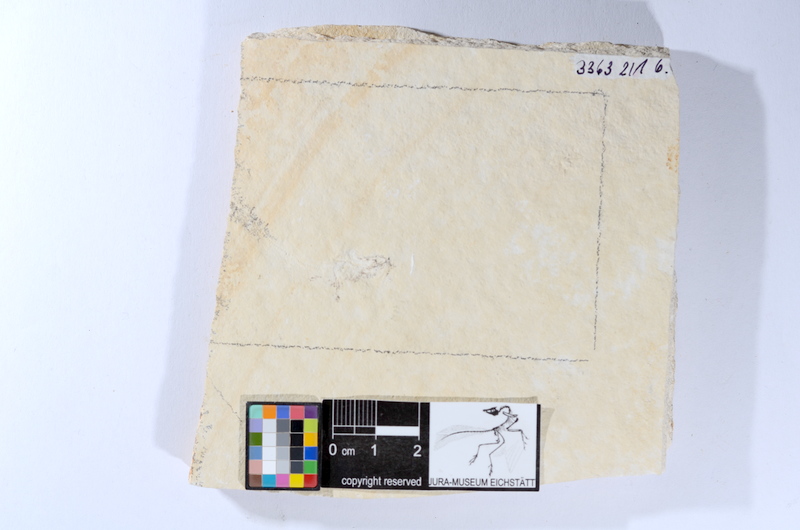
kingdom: Animalia
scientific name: Animalia
